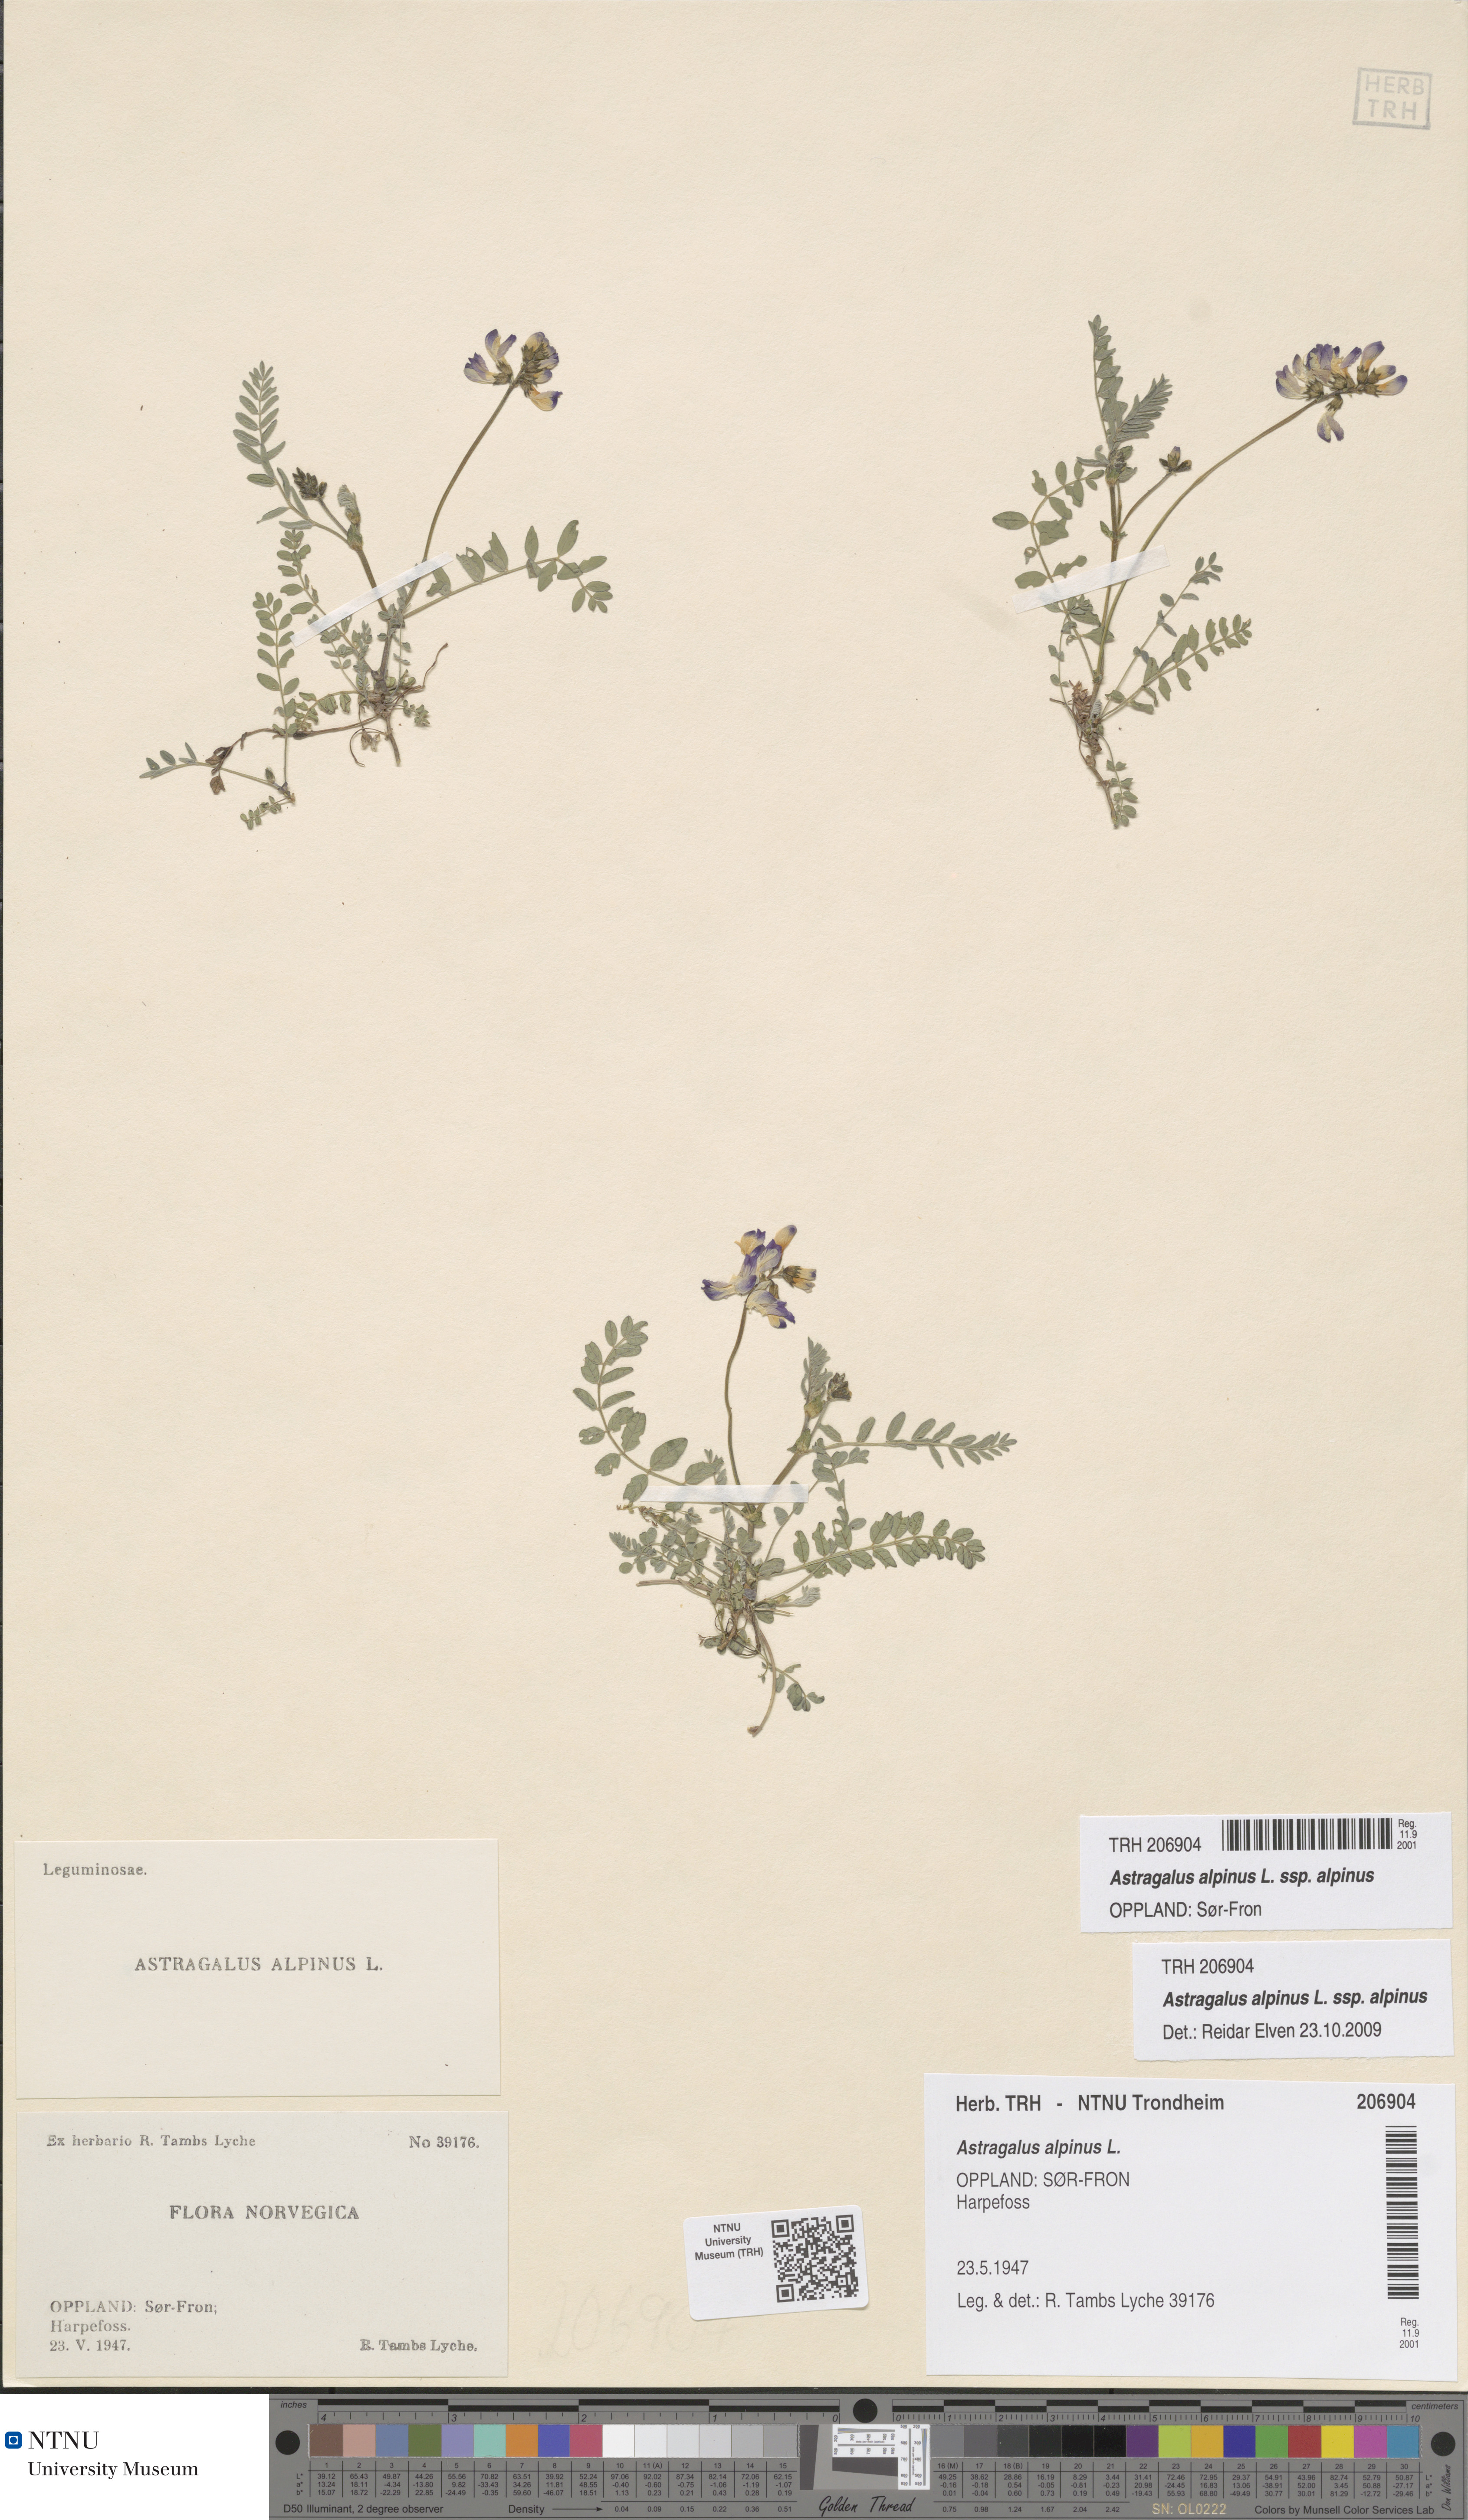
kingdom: Plantae
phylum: Tracheophyta
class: Magnoliopsida
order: Fabales
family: Fabaceae
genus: Astragalus
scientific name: Astragalus alpinus
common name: Alpine milk-vetch
